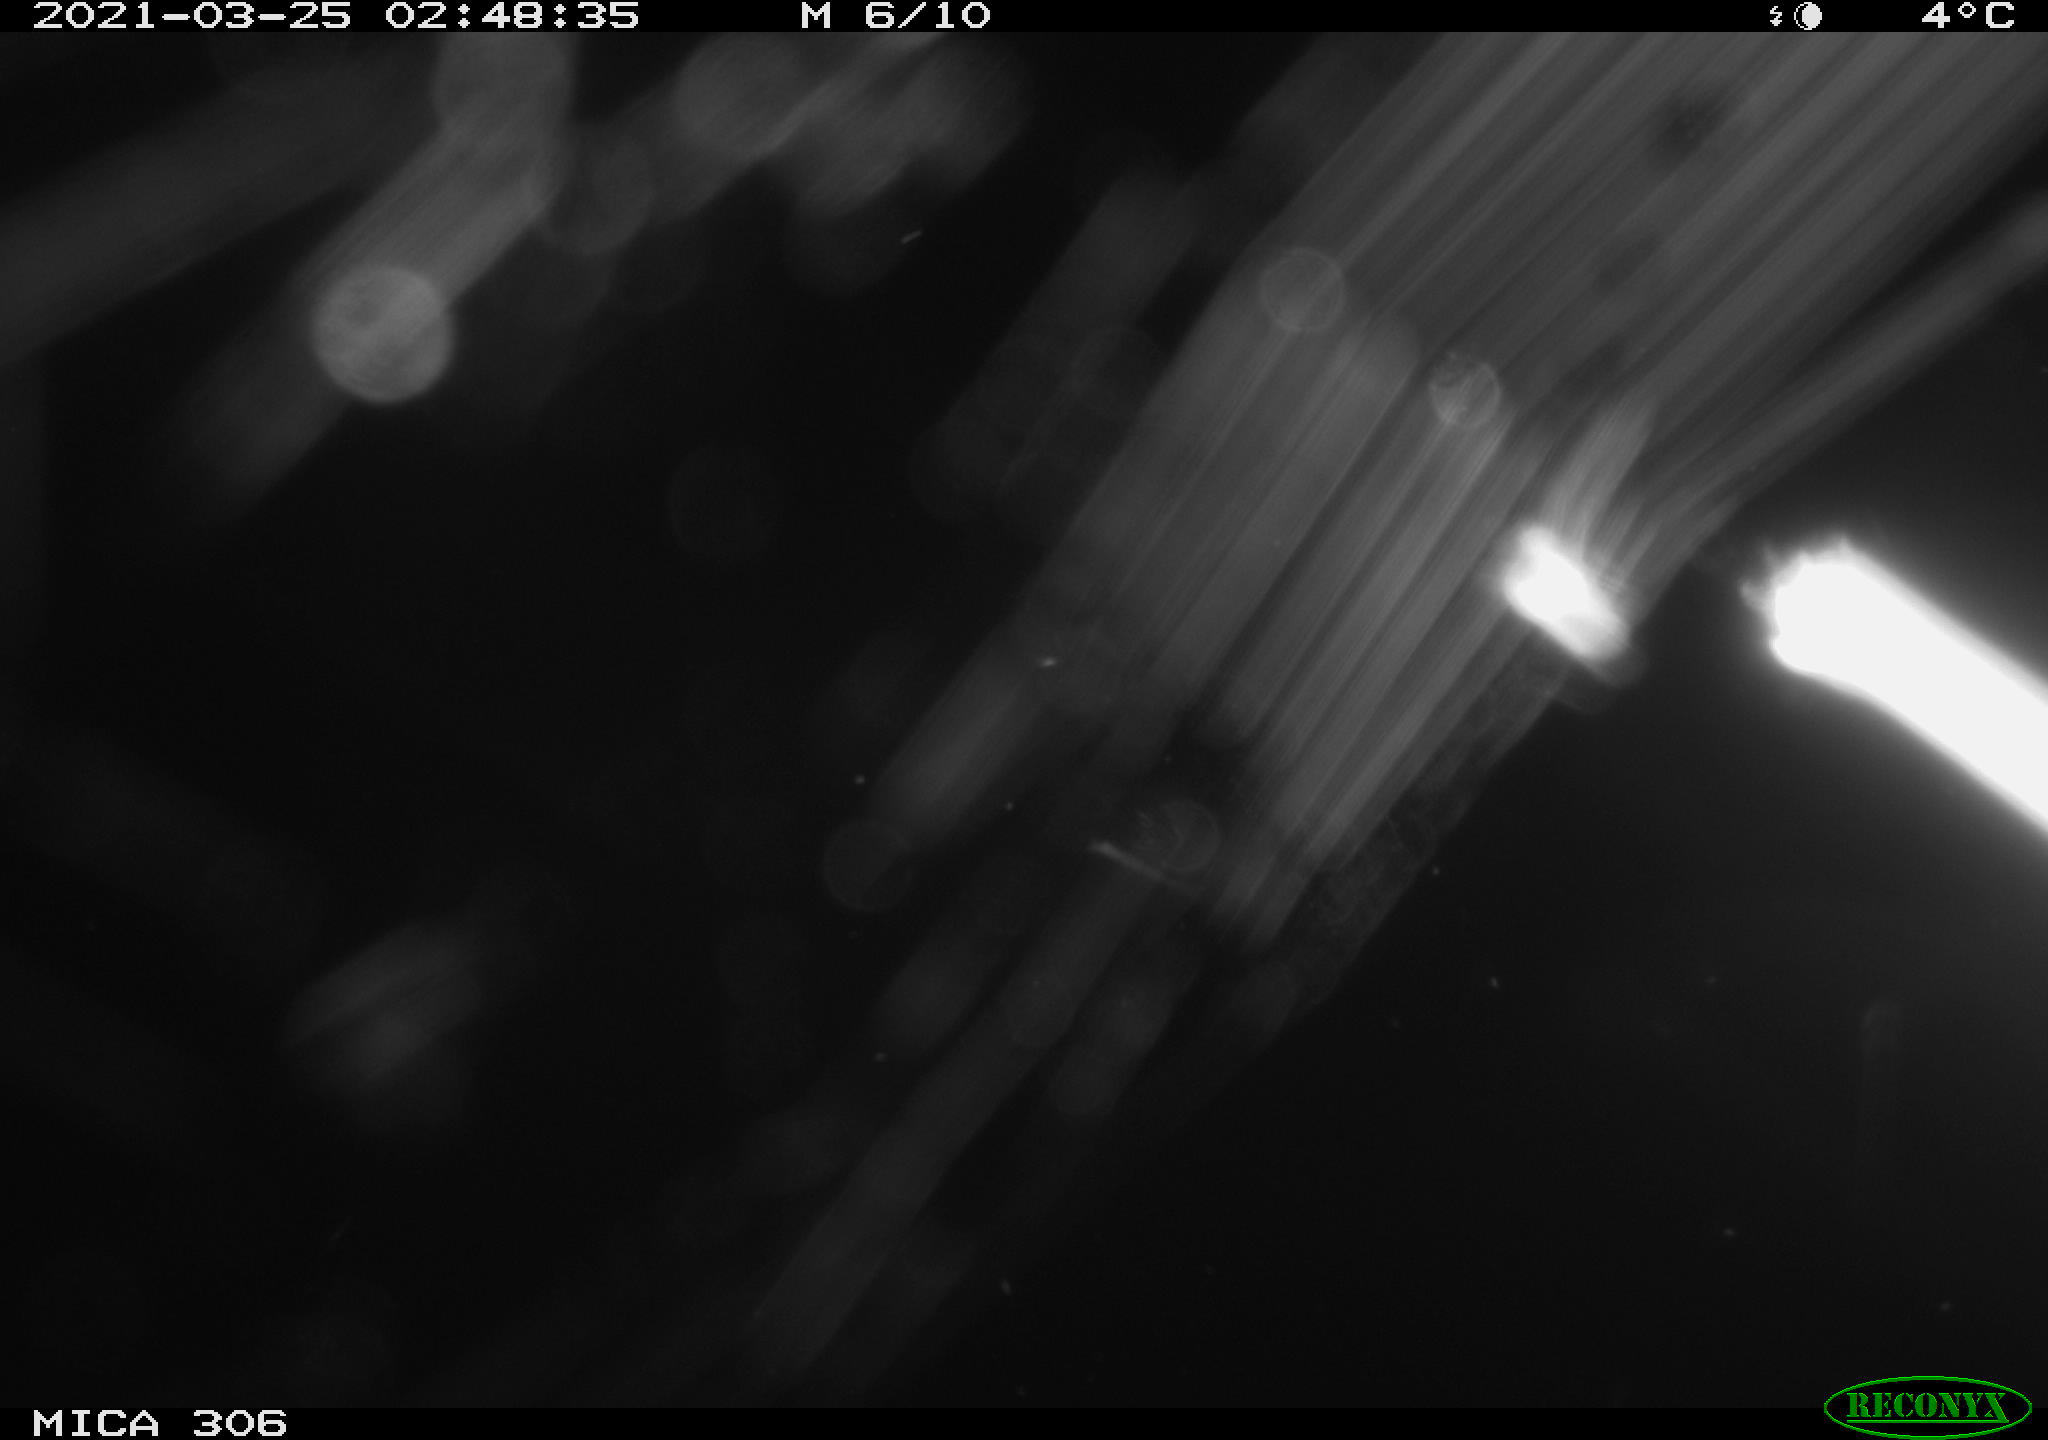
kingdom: Animalia
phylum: Chordata
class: Mammalia
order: Rodentia
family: Cricetidae
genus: Ondatra
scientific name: Ondatra zibethicus
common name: Muskrat
